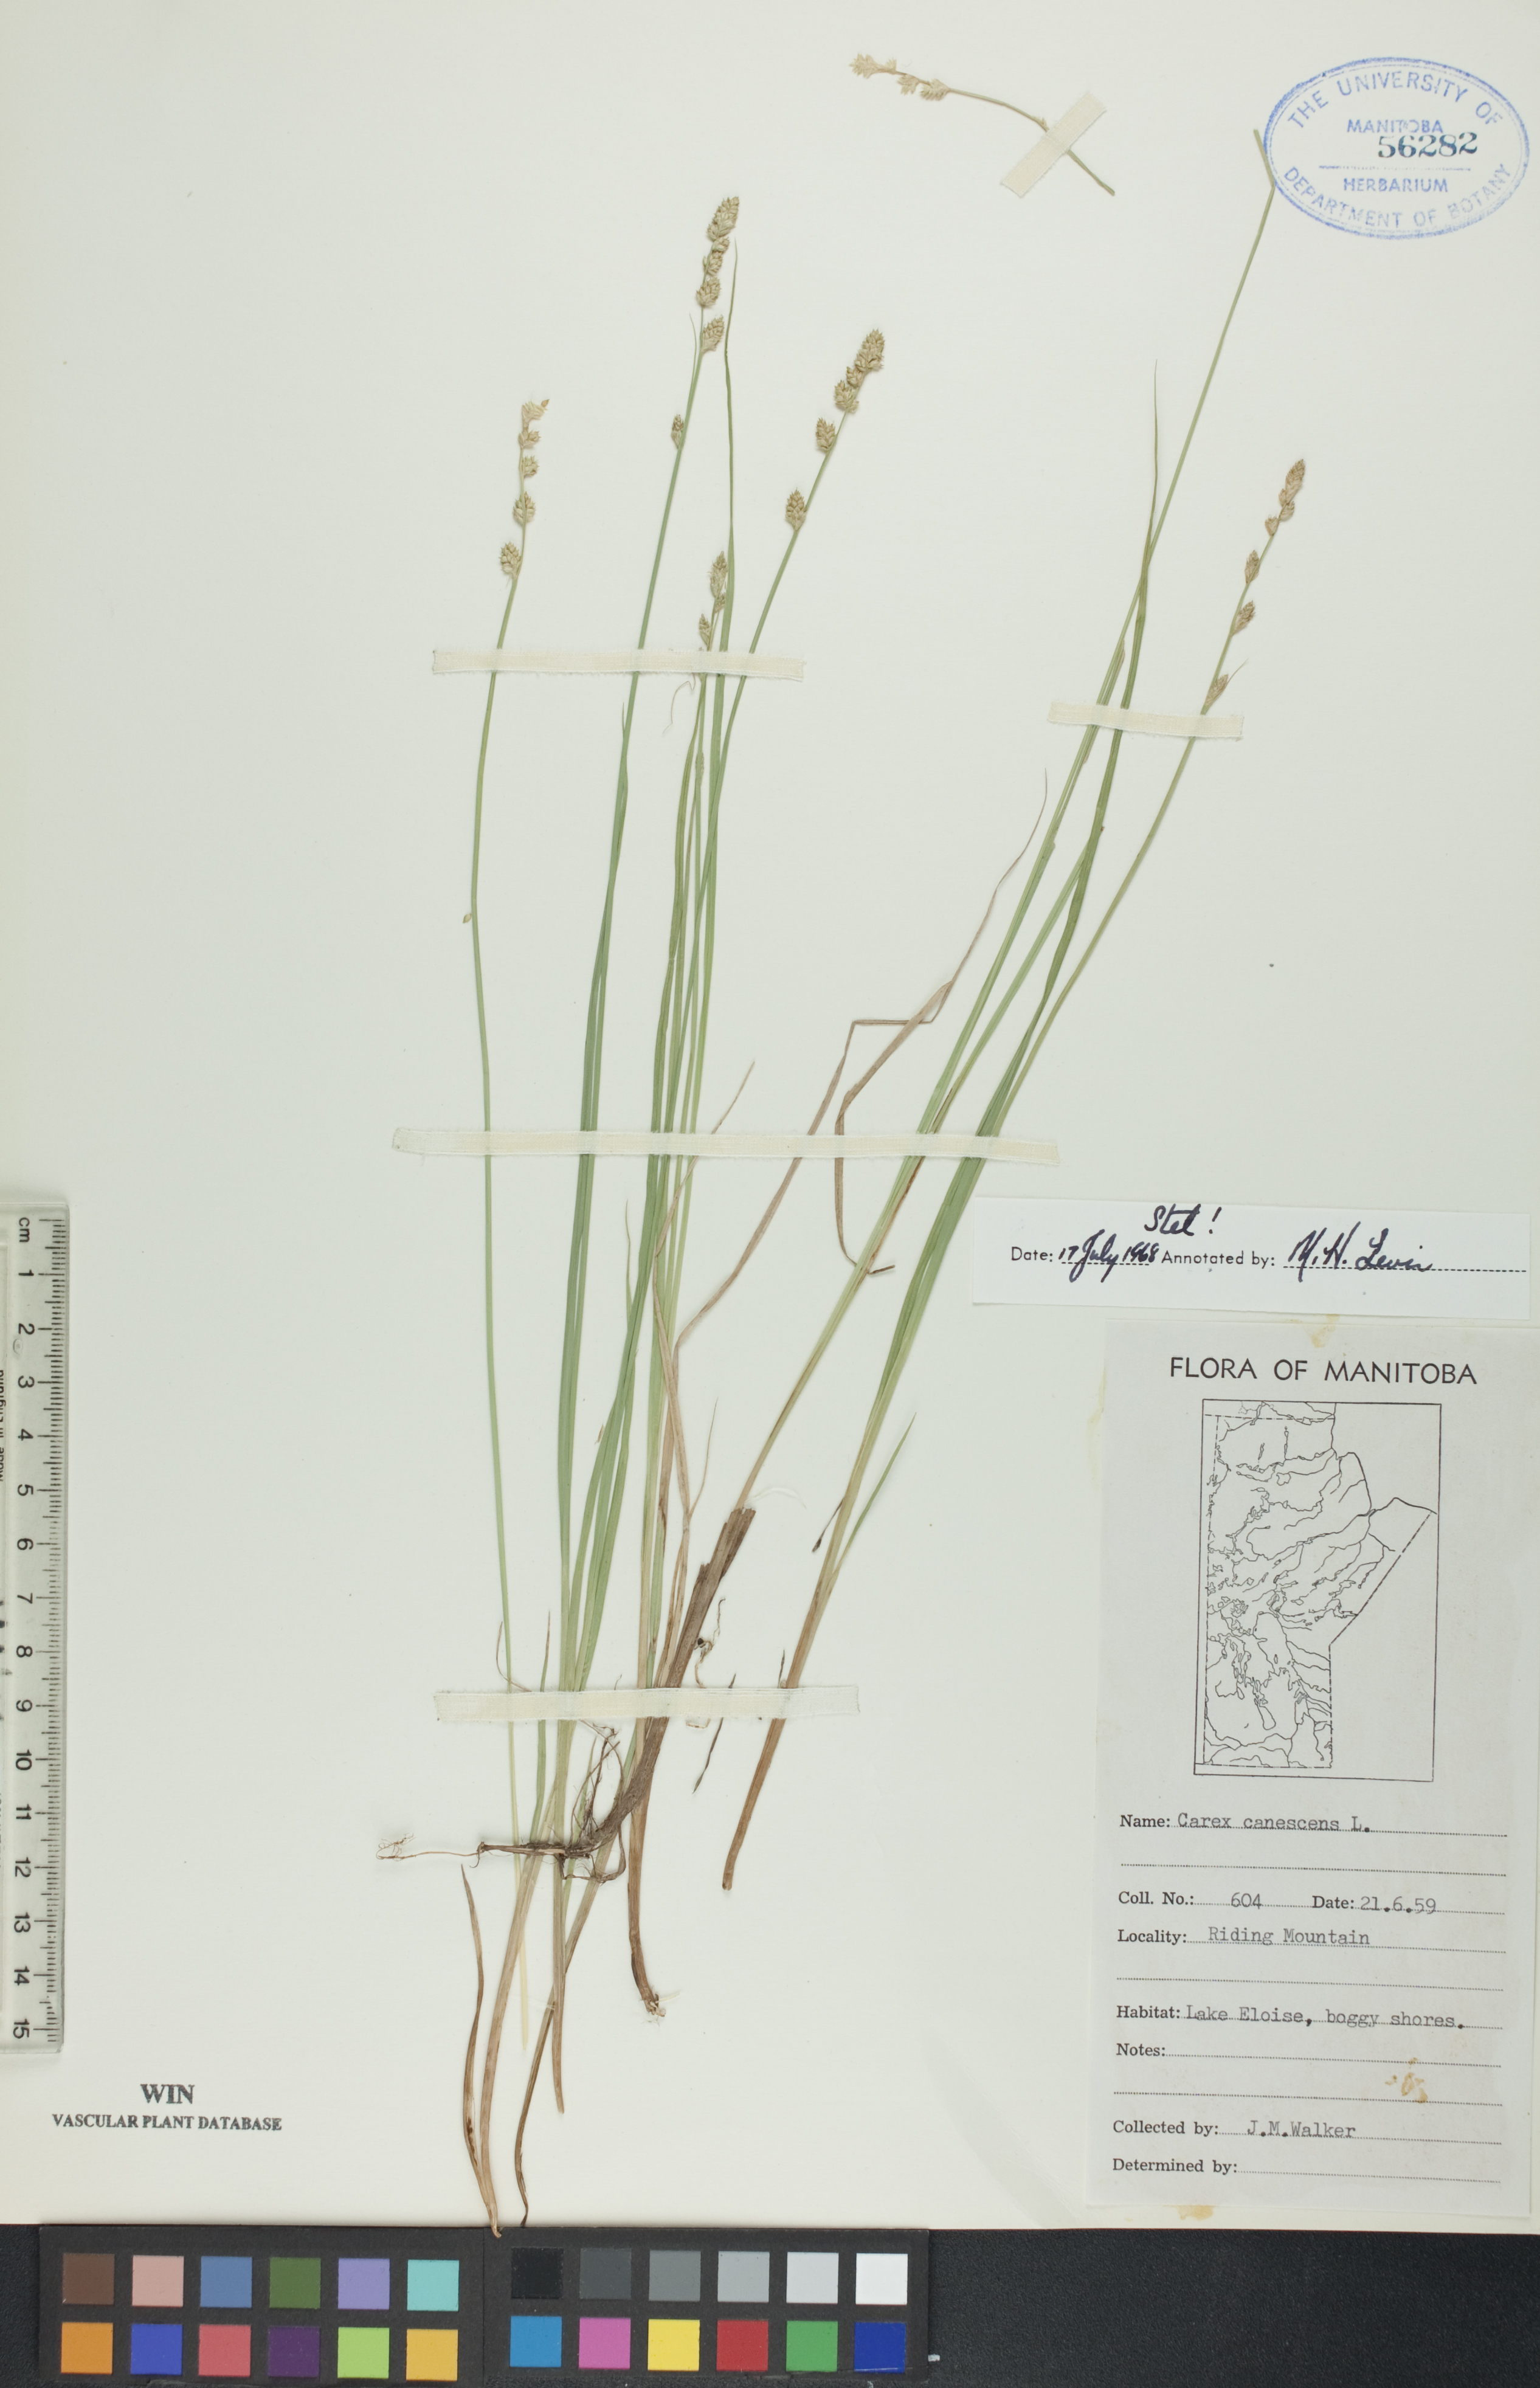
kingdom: Plantae
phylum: Tracheophyta
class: Liliopsida
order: Poales
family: Cyperaceae
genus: Carex
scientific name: Carex canescens
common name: White sedge
